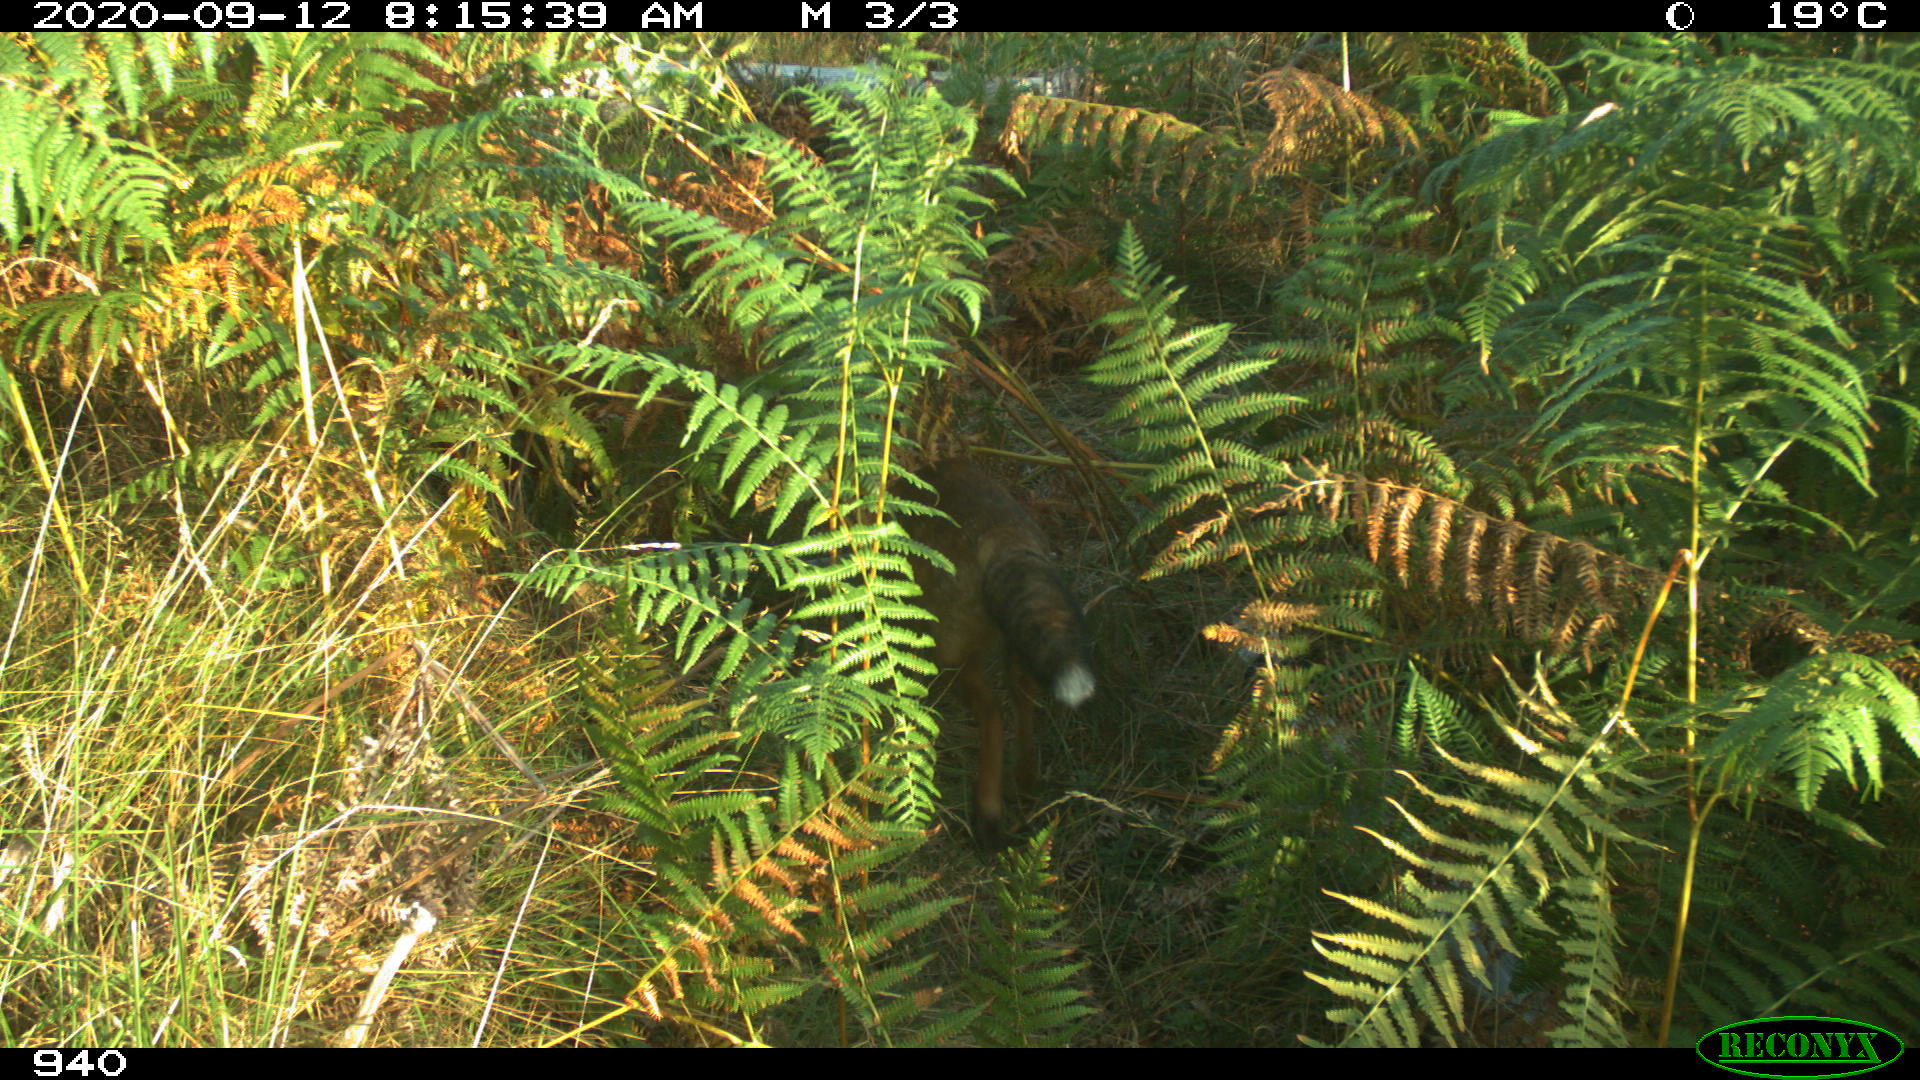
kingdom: Animalia
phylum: Chordata
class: Mammalia
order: Carnivora
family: Canidae
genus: Vulpes
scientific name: Vulpes vulpes
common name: Red fox
